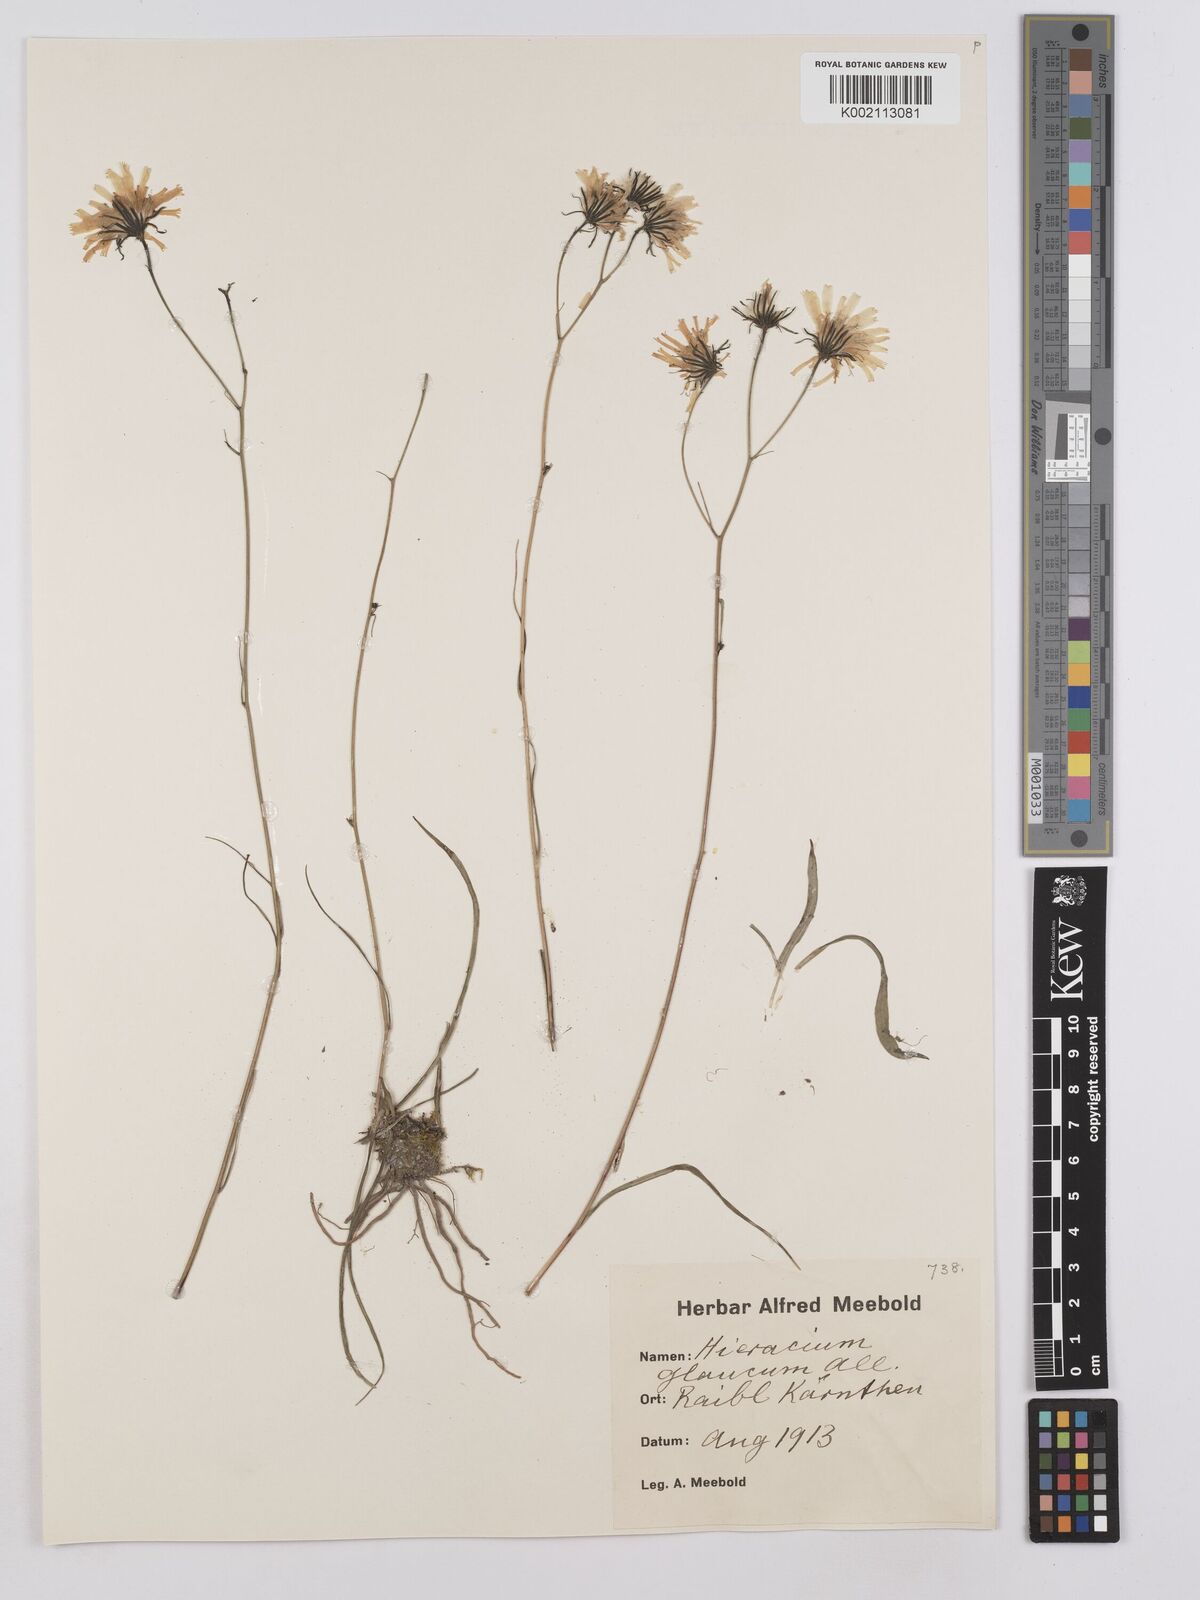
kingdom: Plantae
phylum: Tracheophyta
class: Magnoliopsida
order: Asterales
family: Asteraceae
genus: Hieracium
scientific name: Hieracium glaucum
